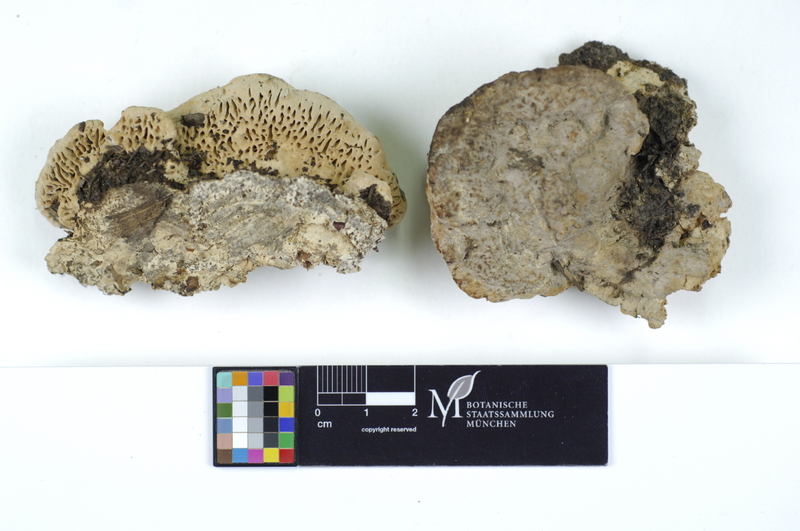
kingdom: Fungi
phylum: Basidiomycota
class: Agaricomycetes
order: Polyporales
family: Fomitopsidaceae
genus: Daedalea
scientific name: Daedalea quercina
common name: Oak mazegill
